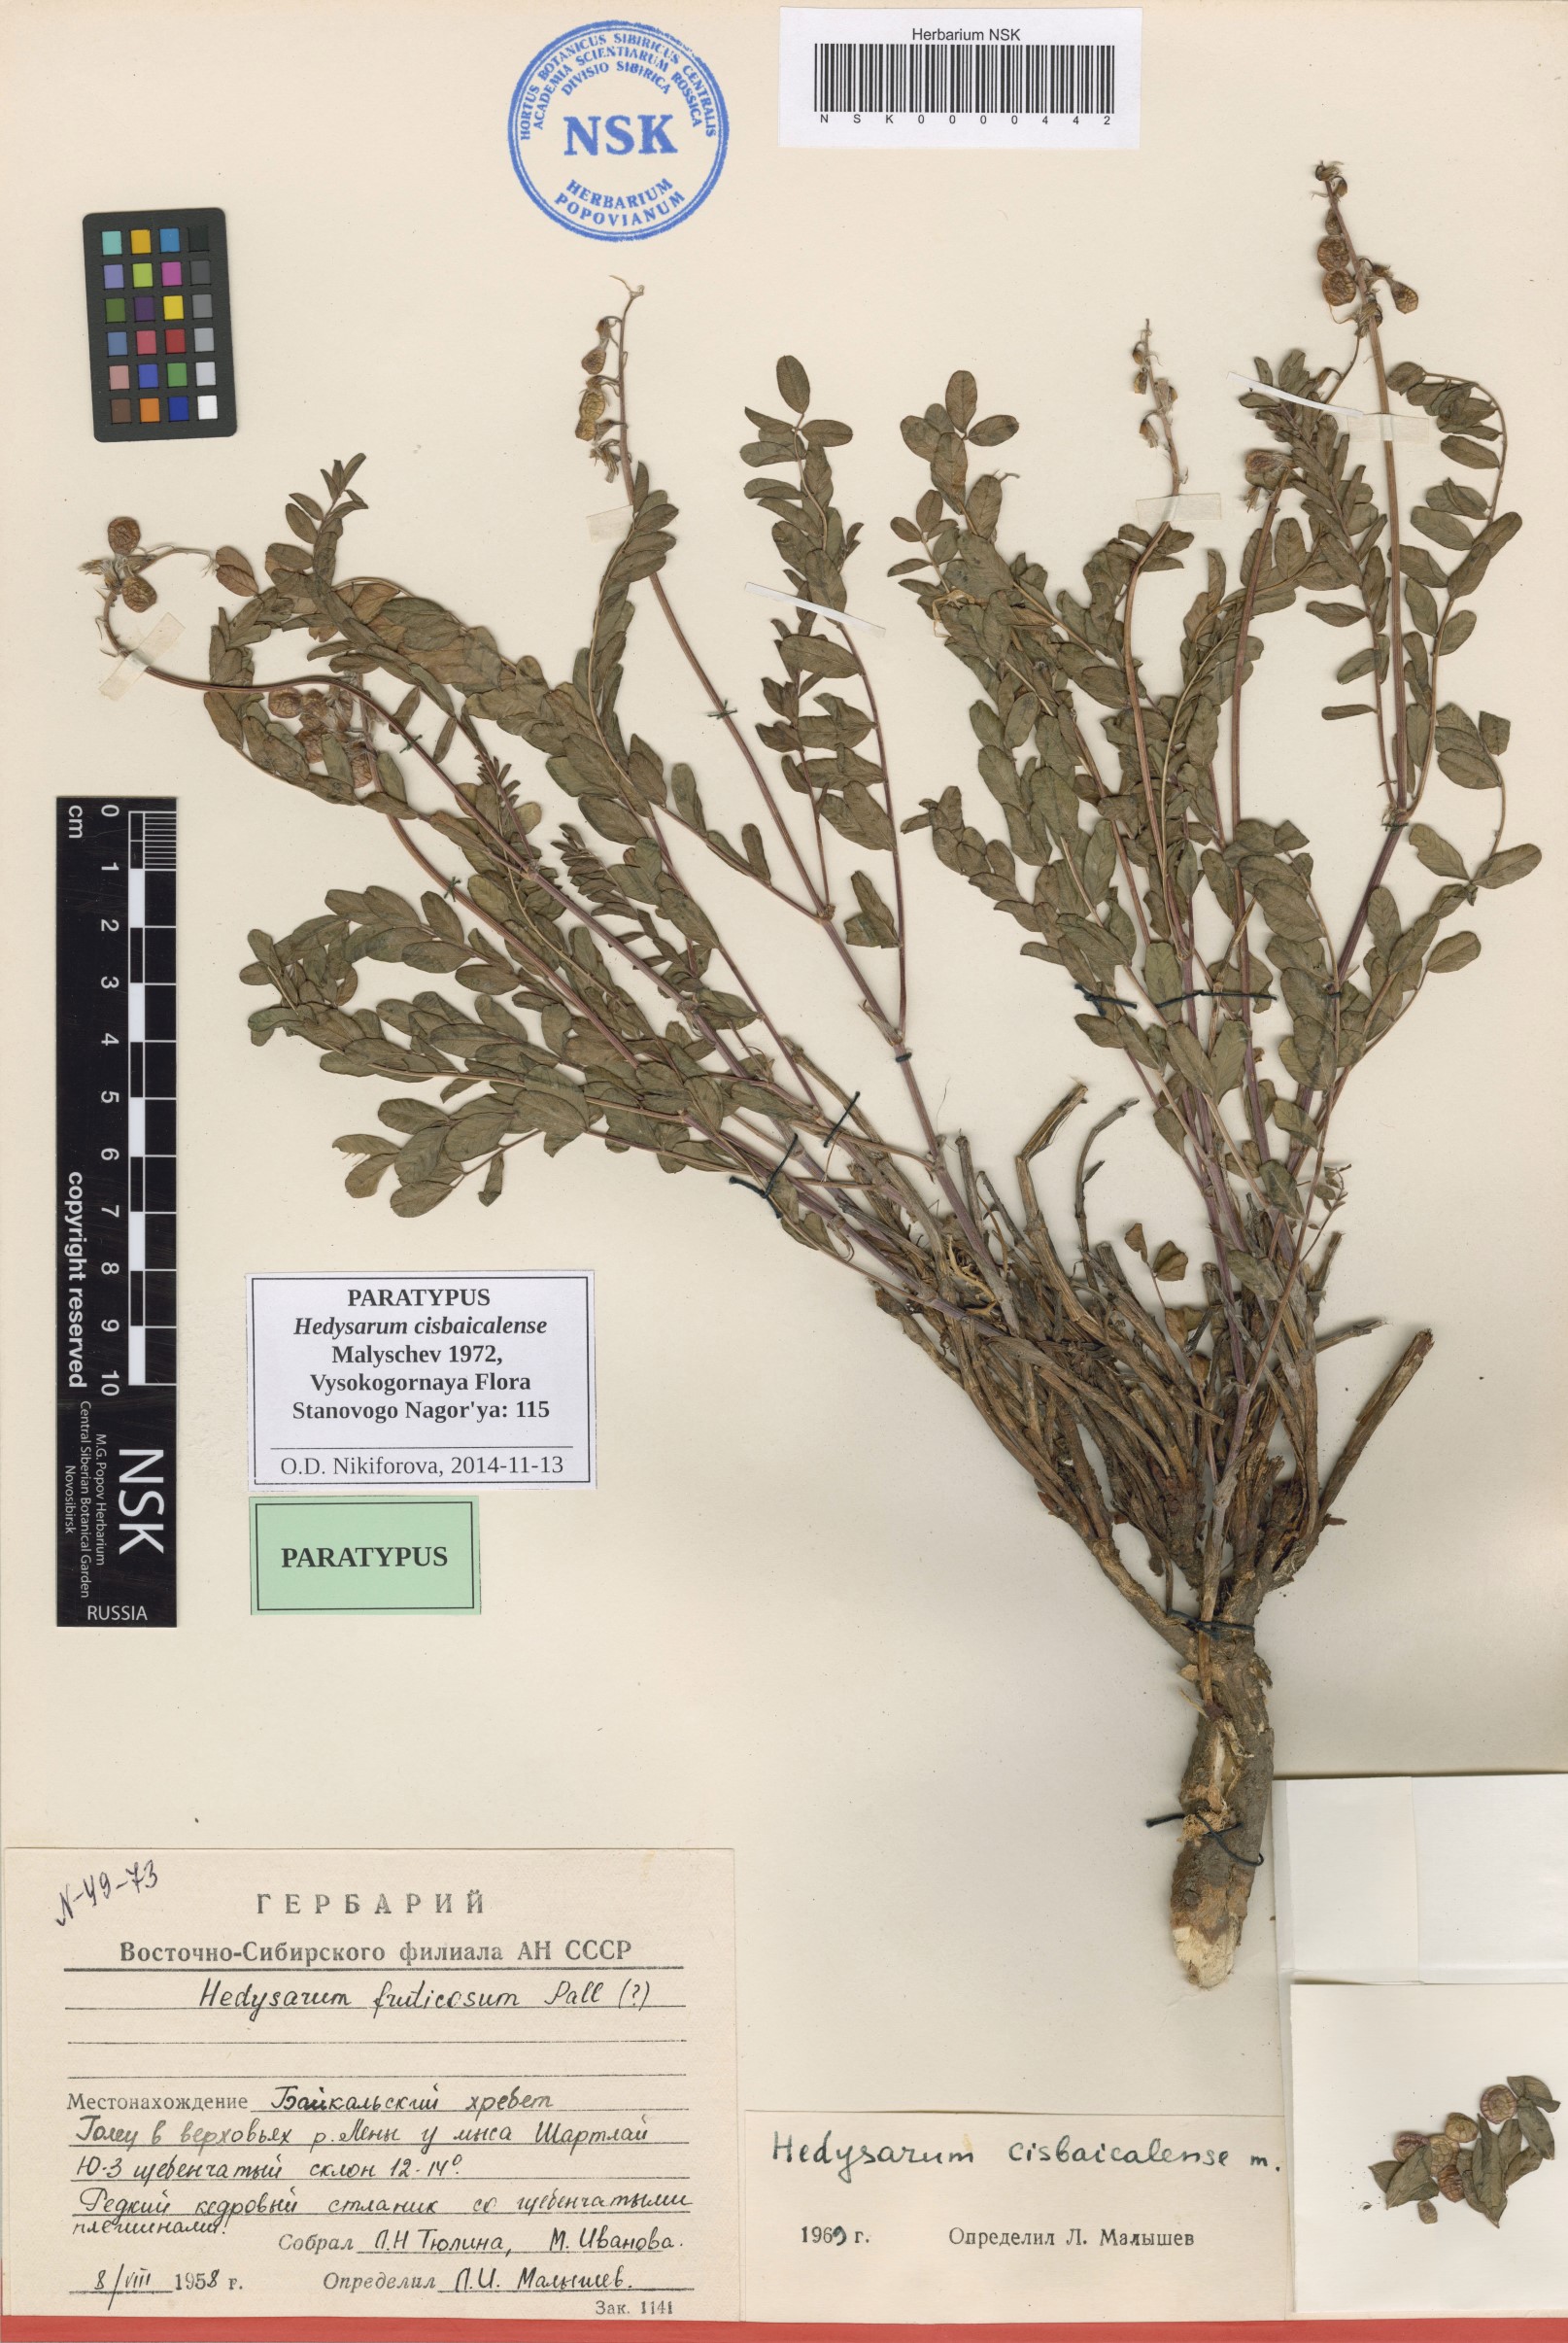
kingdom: Plantae
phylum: Tracheophyta
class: Magnoliopsida
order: Fabales
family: Fabaceae
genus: Hedysarum
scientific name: Hedysarum cisbaicalense
